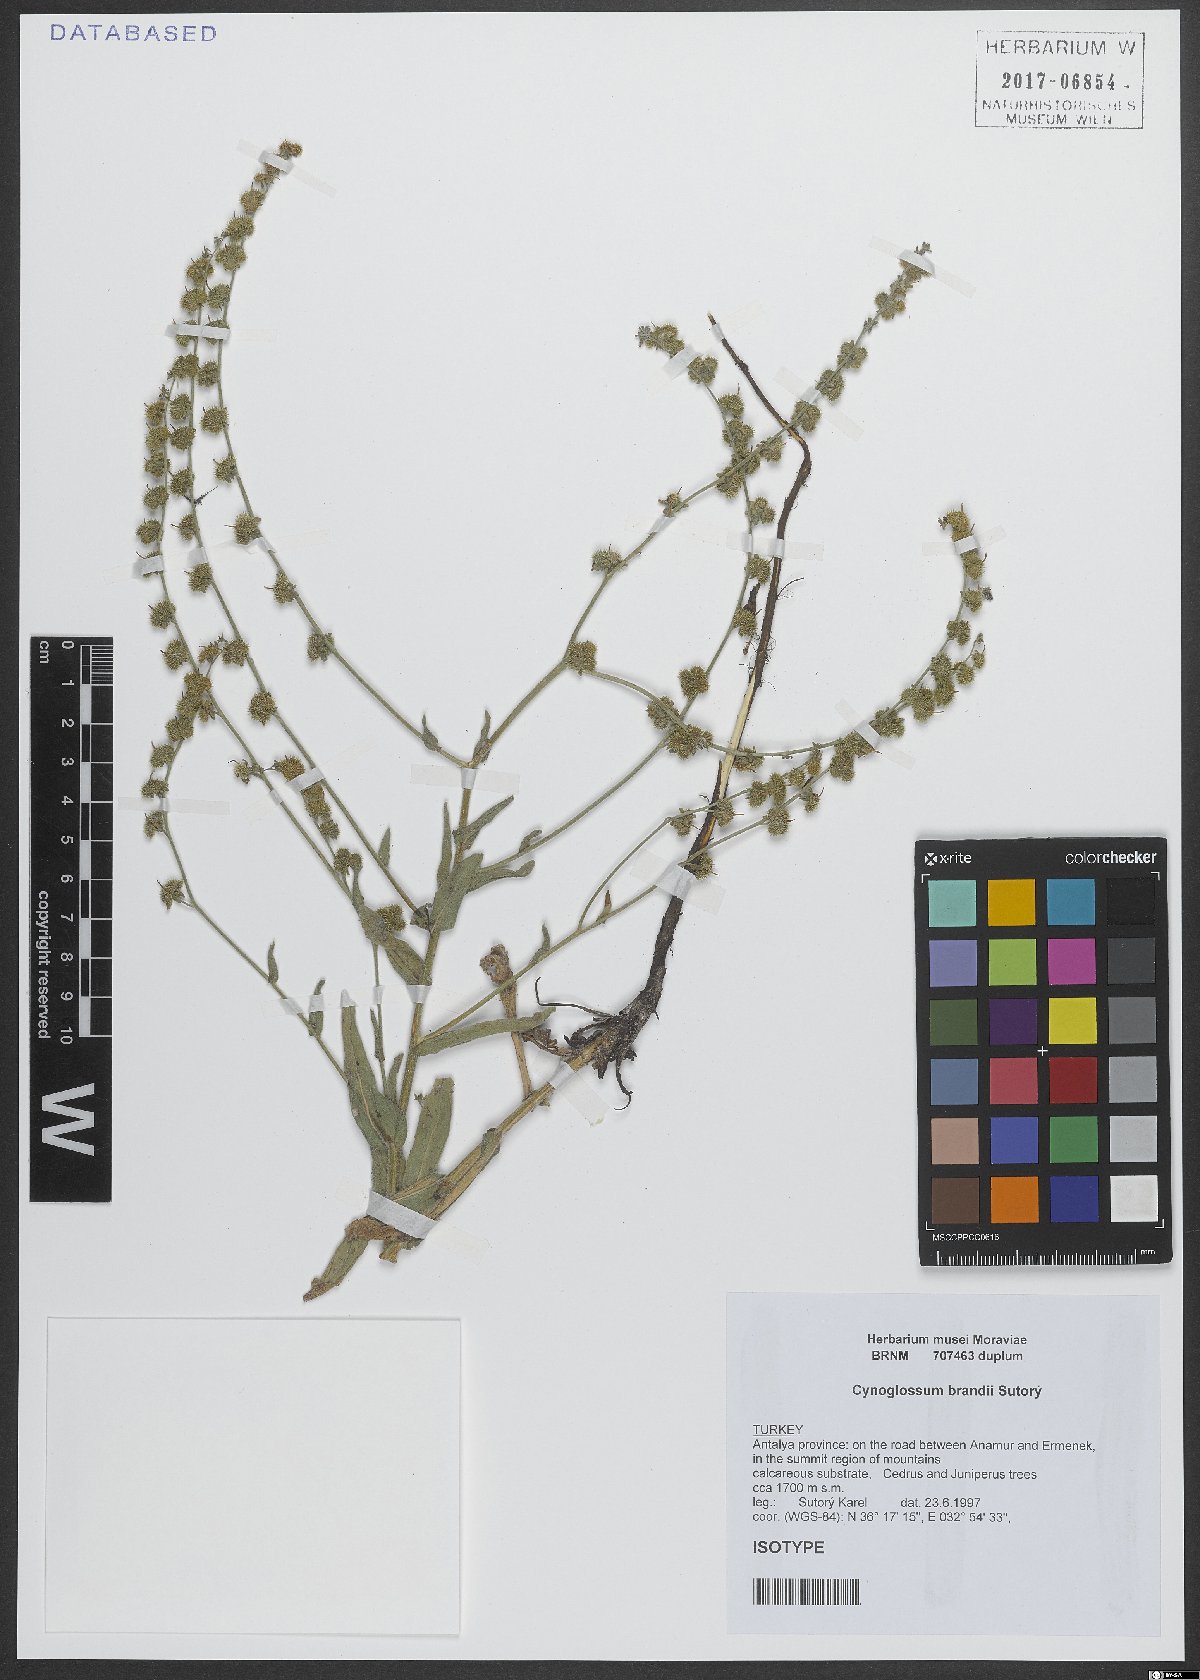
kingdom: Plantae
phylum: Tracheophyta
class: Magnoliopsida
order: Boraginales
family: Boraginaceae
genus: Cynoglossum
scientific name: Cynoglossum brandii
